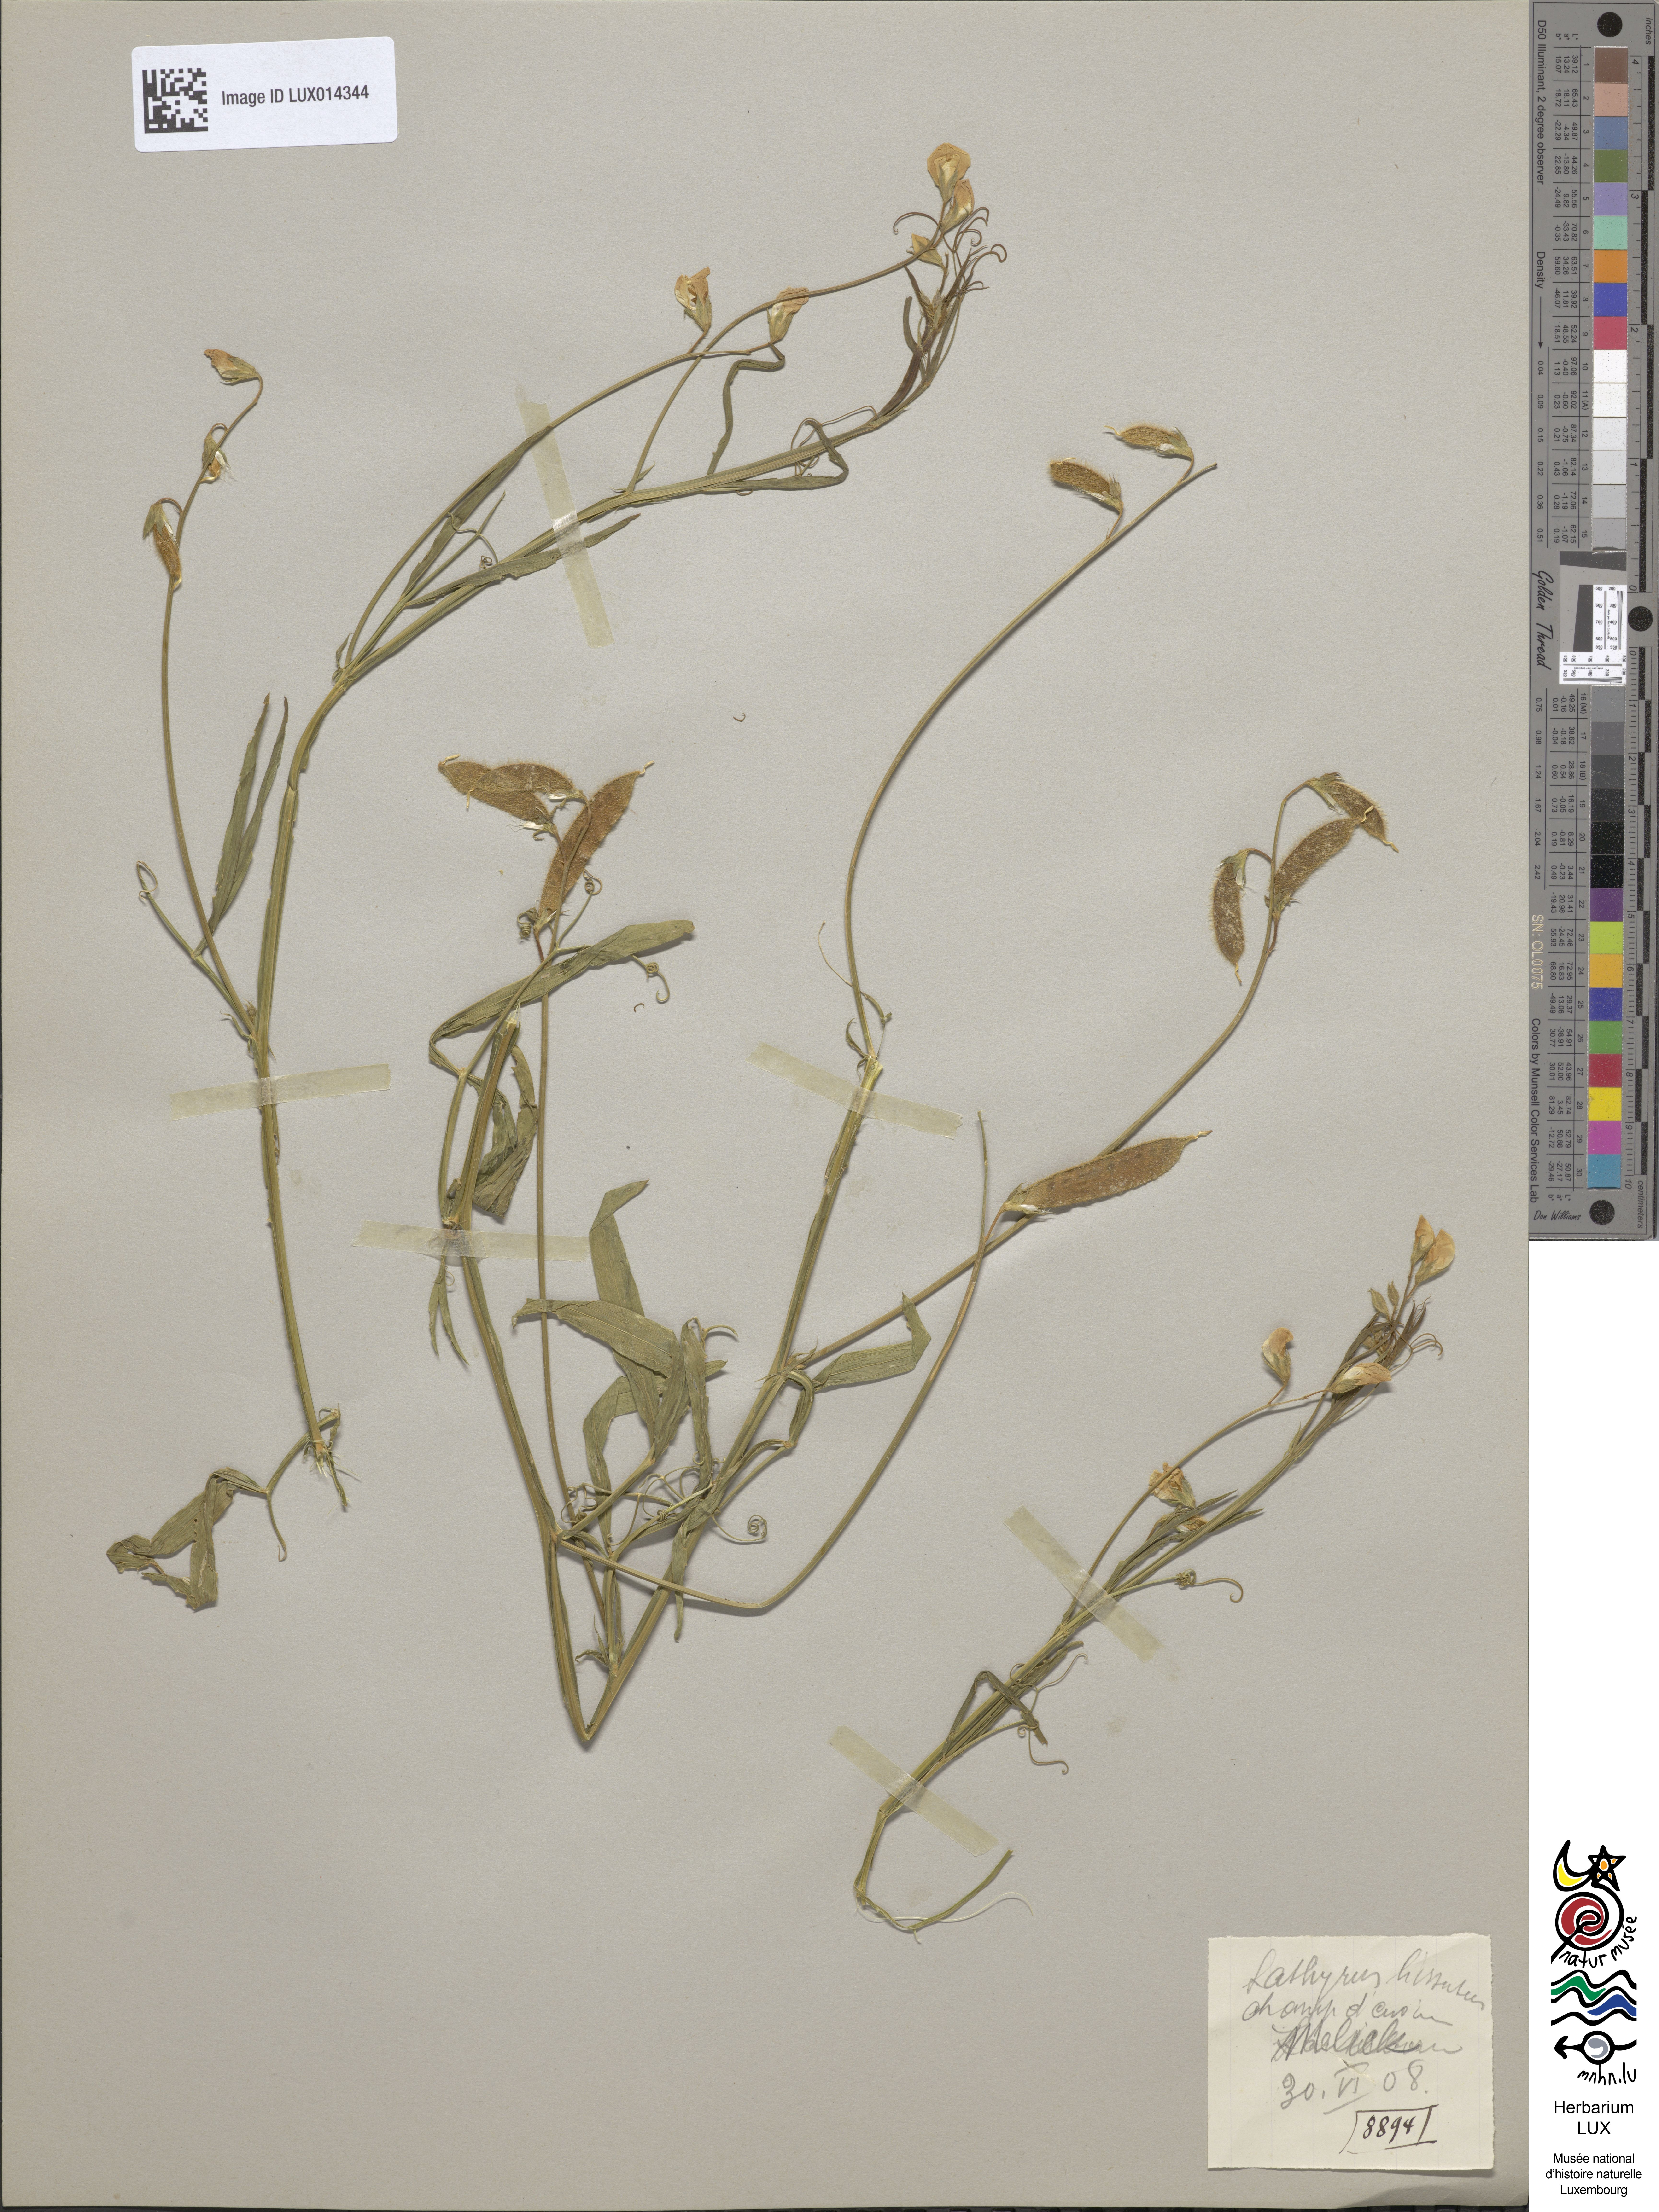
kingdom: Plantae
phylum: Tracheophyta
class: Magnoliopsida
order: Fabales
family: Fabaceae
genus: Lathyrus
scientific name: Lathyrus hirsutus
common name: Hairy vetchling
